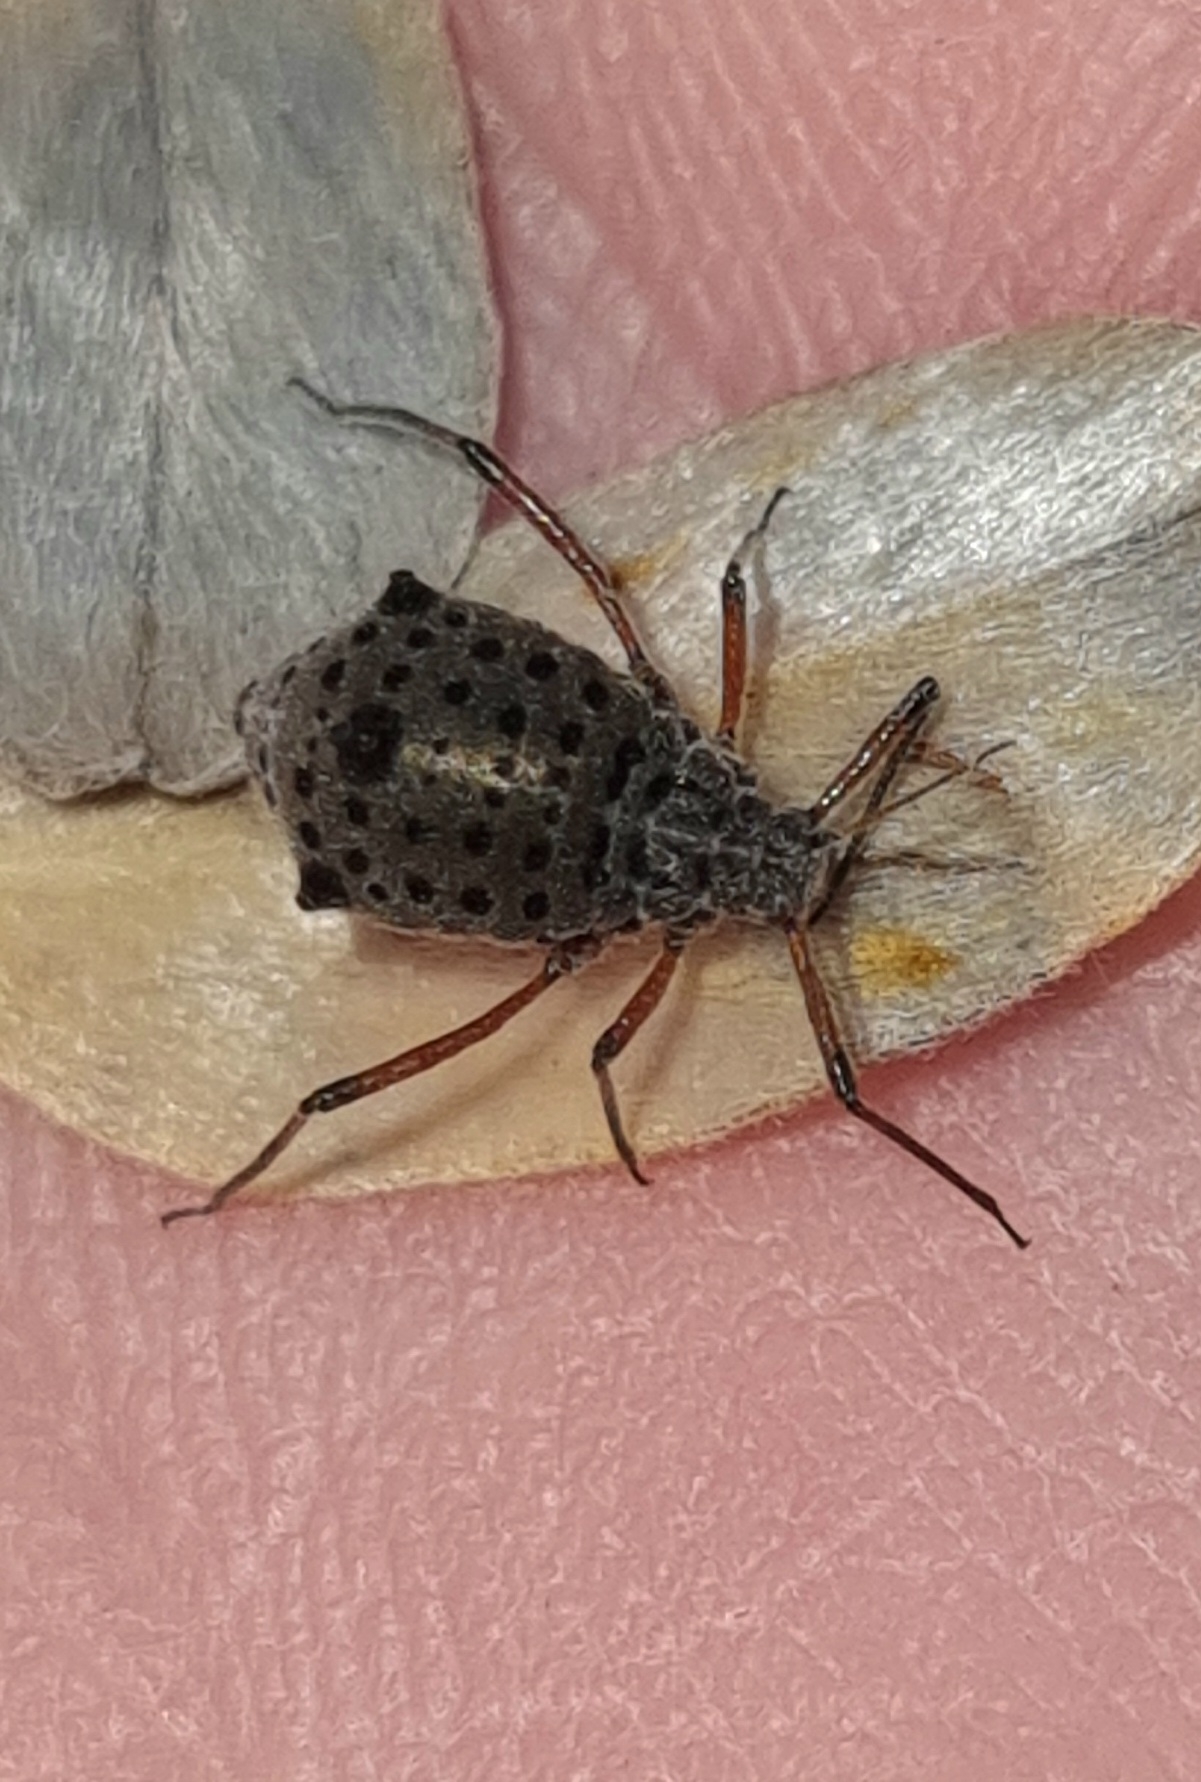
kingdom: Animalia
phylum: Arthropoda
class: Insecta
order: Hemiptera
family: Aphididae
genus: Tuberolachnus
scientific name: Tuberolachnus salignus
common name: Pilegrenbladlus
